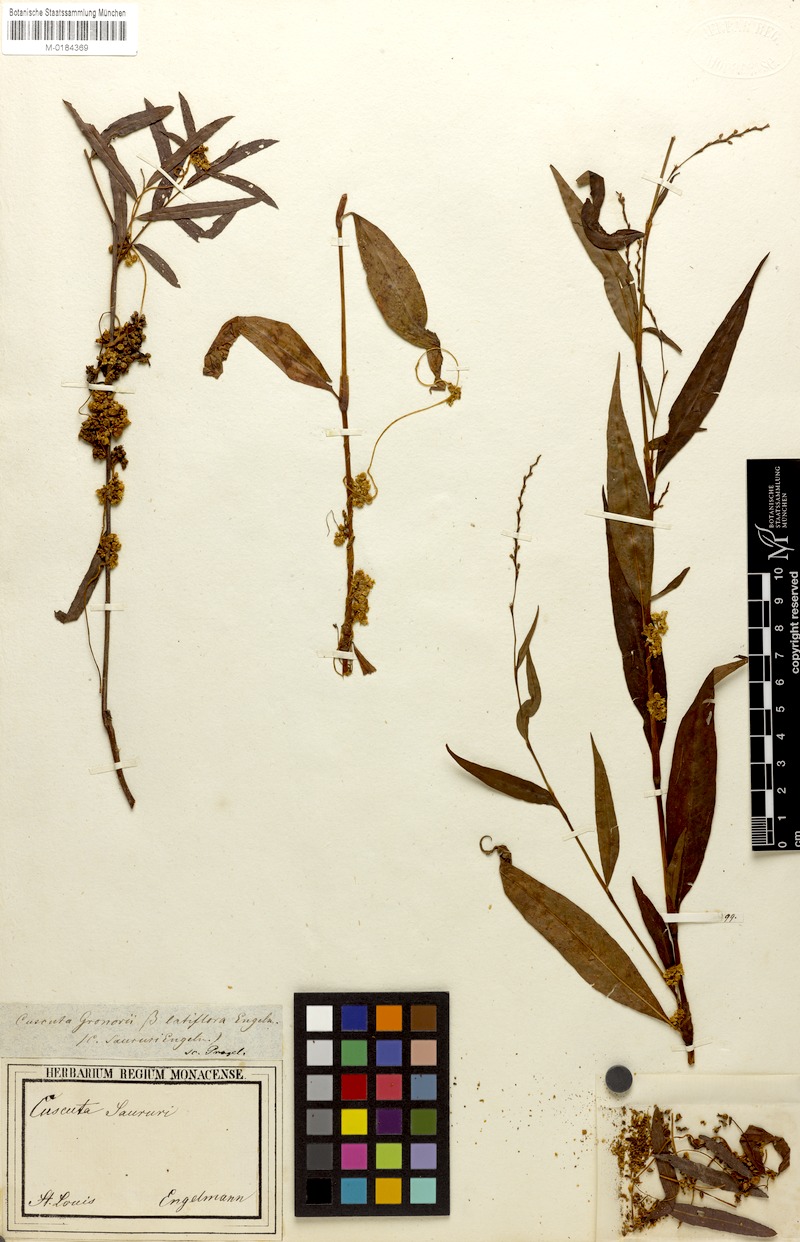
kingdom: Plantae
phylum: Tracheophyta
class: Magnoliopsida
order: Solanales
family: Convolvulaceae
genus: Cuscuta
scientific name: Cuscuta gronovii
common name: Common dodder
